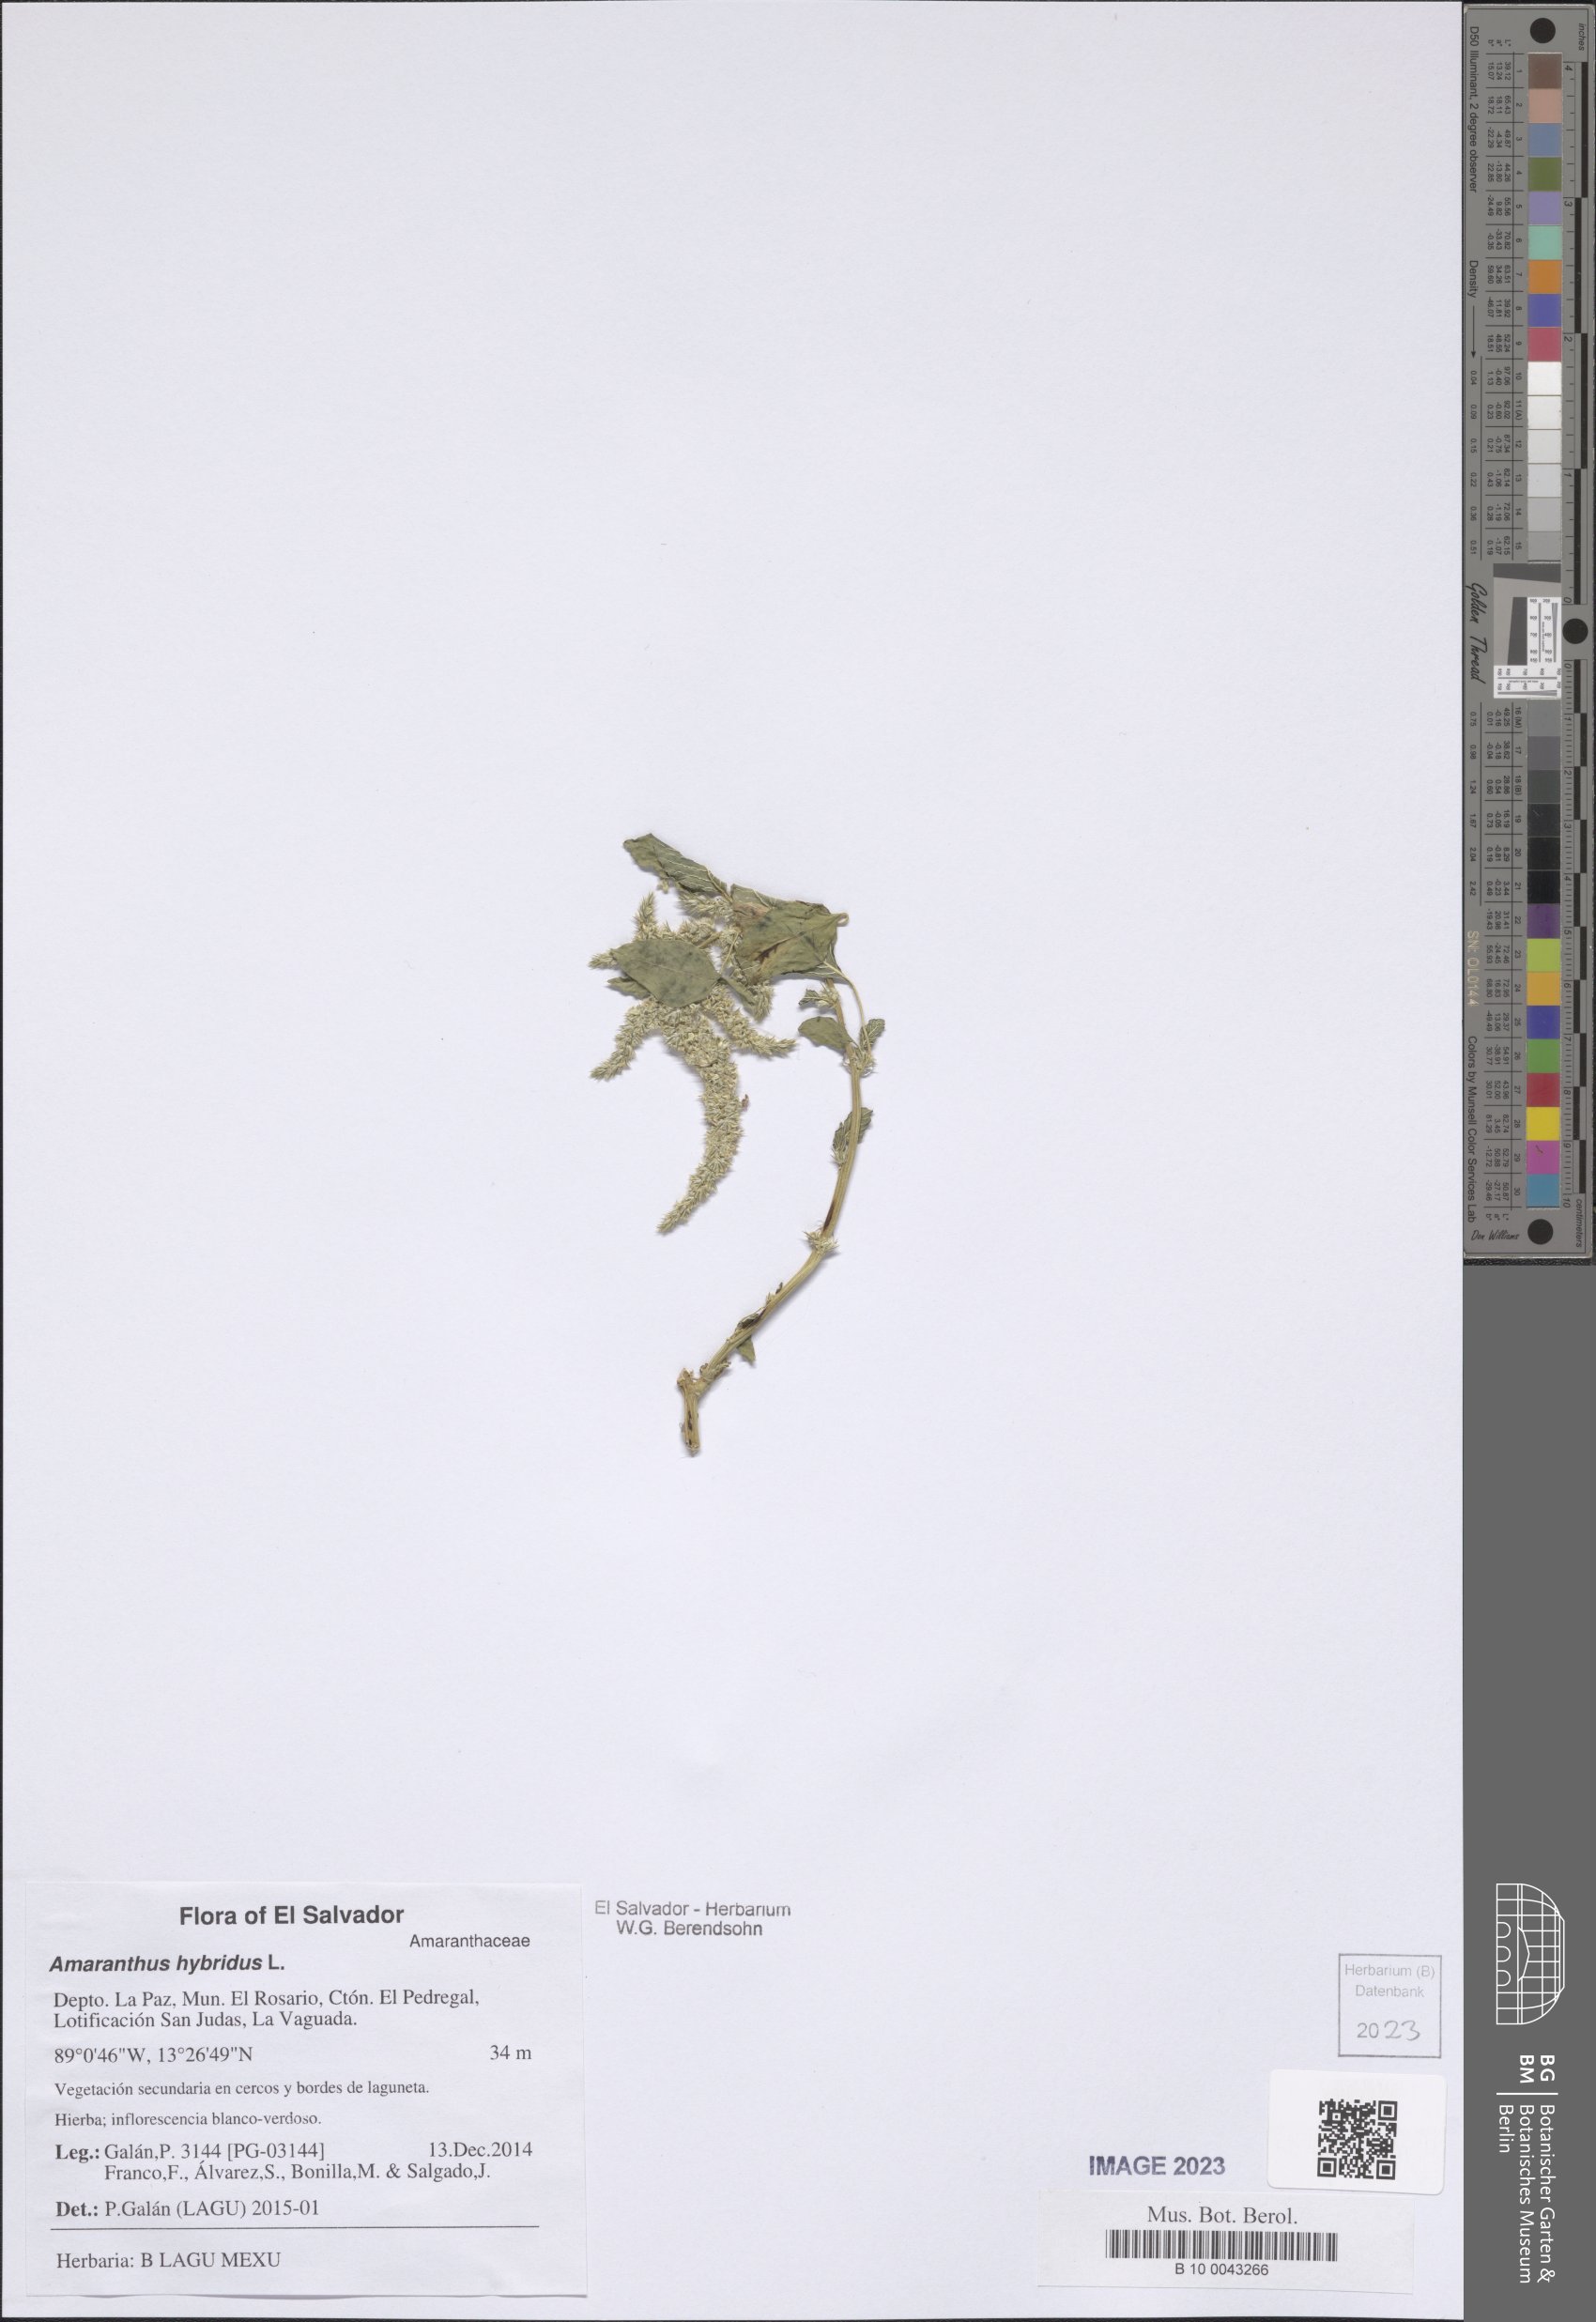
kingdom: Plantae
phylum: Tracheophyta
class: Magnoliopsida
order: Caryophyllales
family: Amaranthaceae
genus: Amaranthus
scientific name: Amaranthus hybridus
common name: Green amaranth
